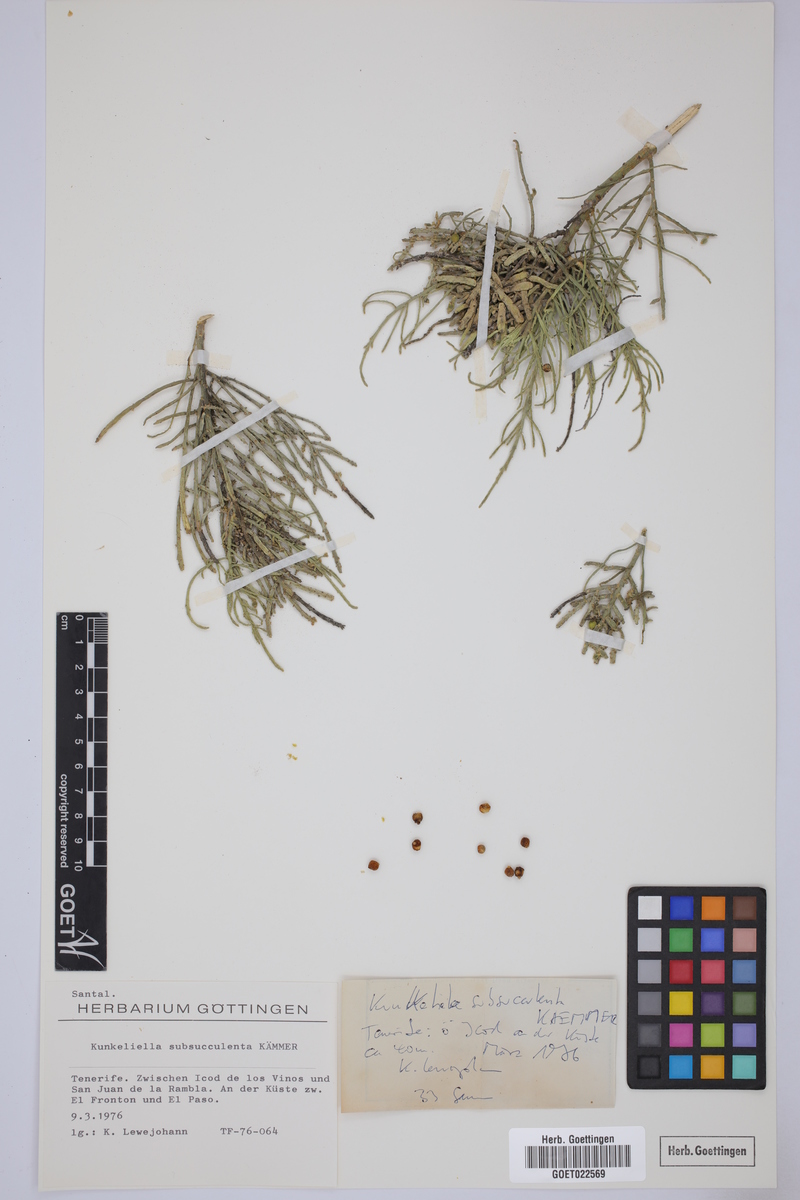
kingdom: Plantae
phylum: Tracheophyta
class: Magnoliopsida
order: Santalales
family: Thesiaceae
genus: Thesium
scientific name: Thesium subsucculentum
